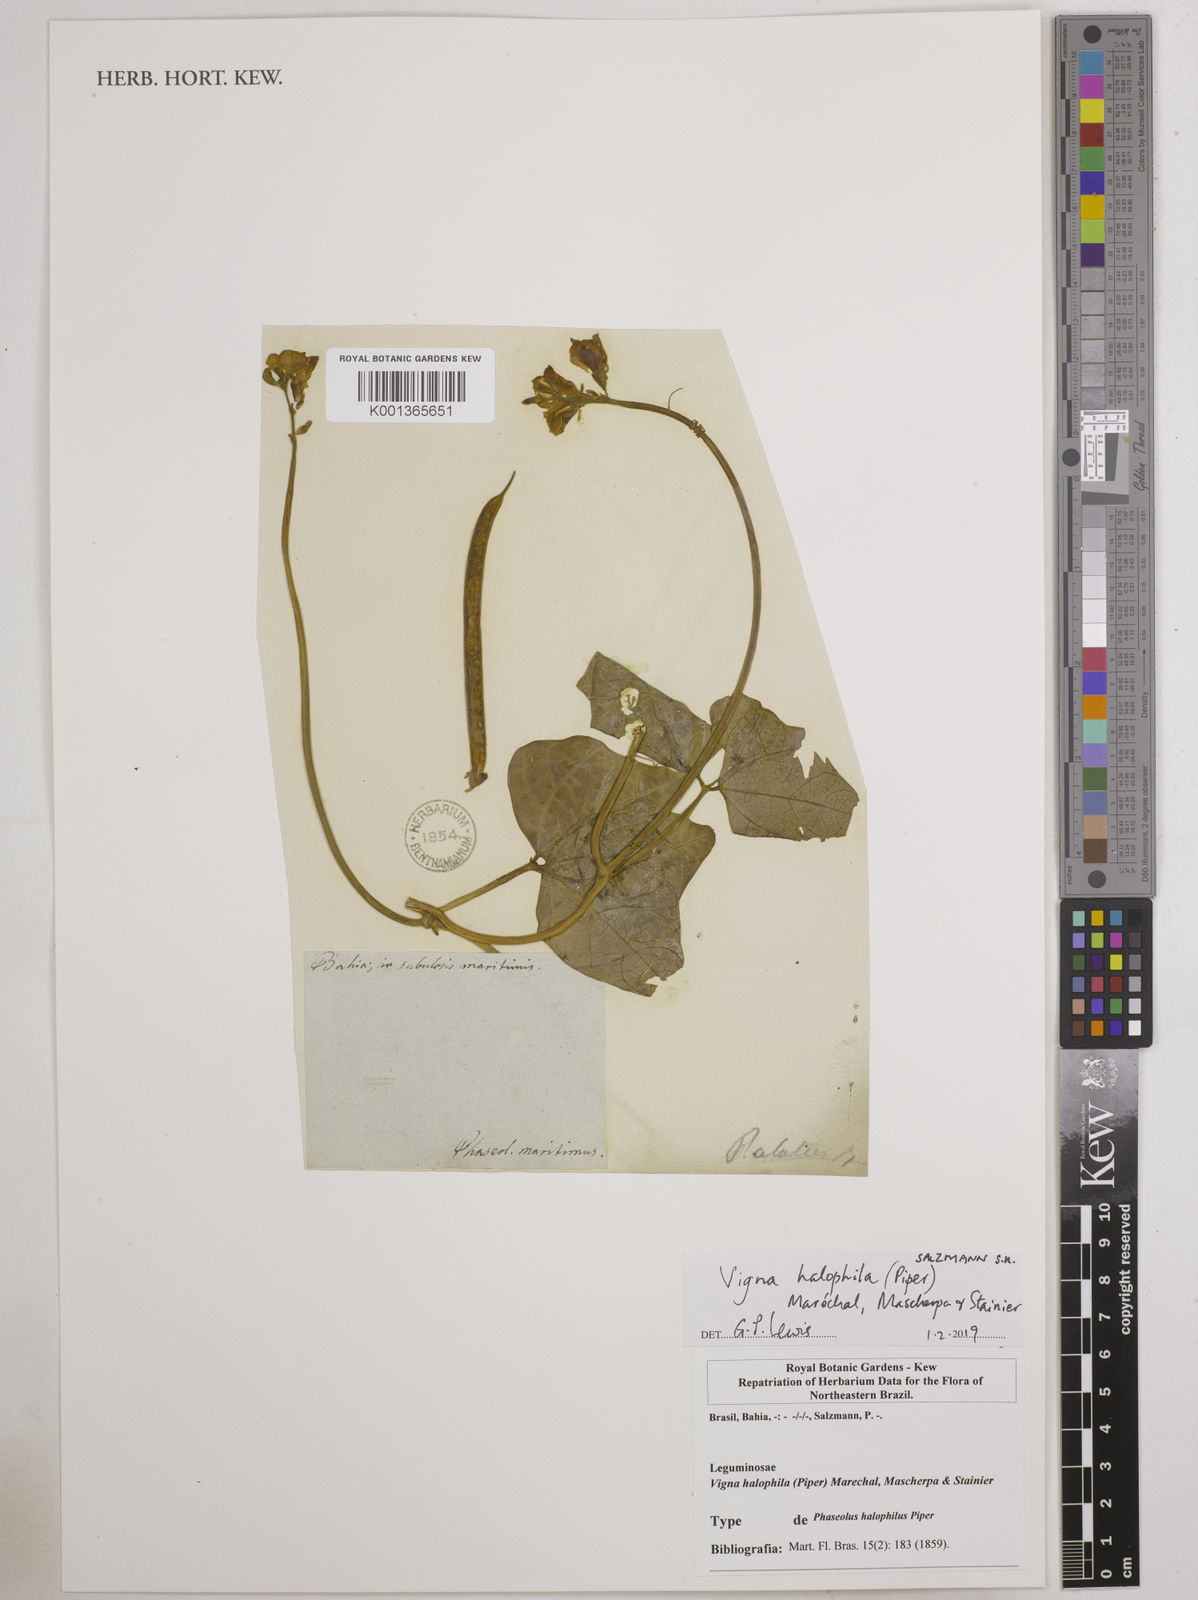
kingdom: Plantae
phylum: Tracheophyta
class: Magnoliopsida
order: Fabales
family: Fabaceae
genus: Vigna
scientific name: Vigna halophila
